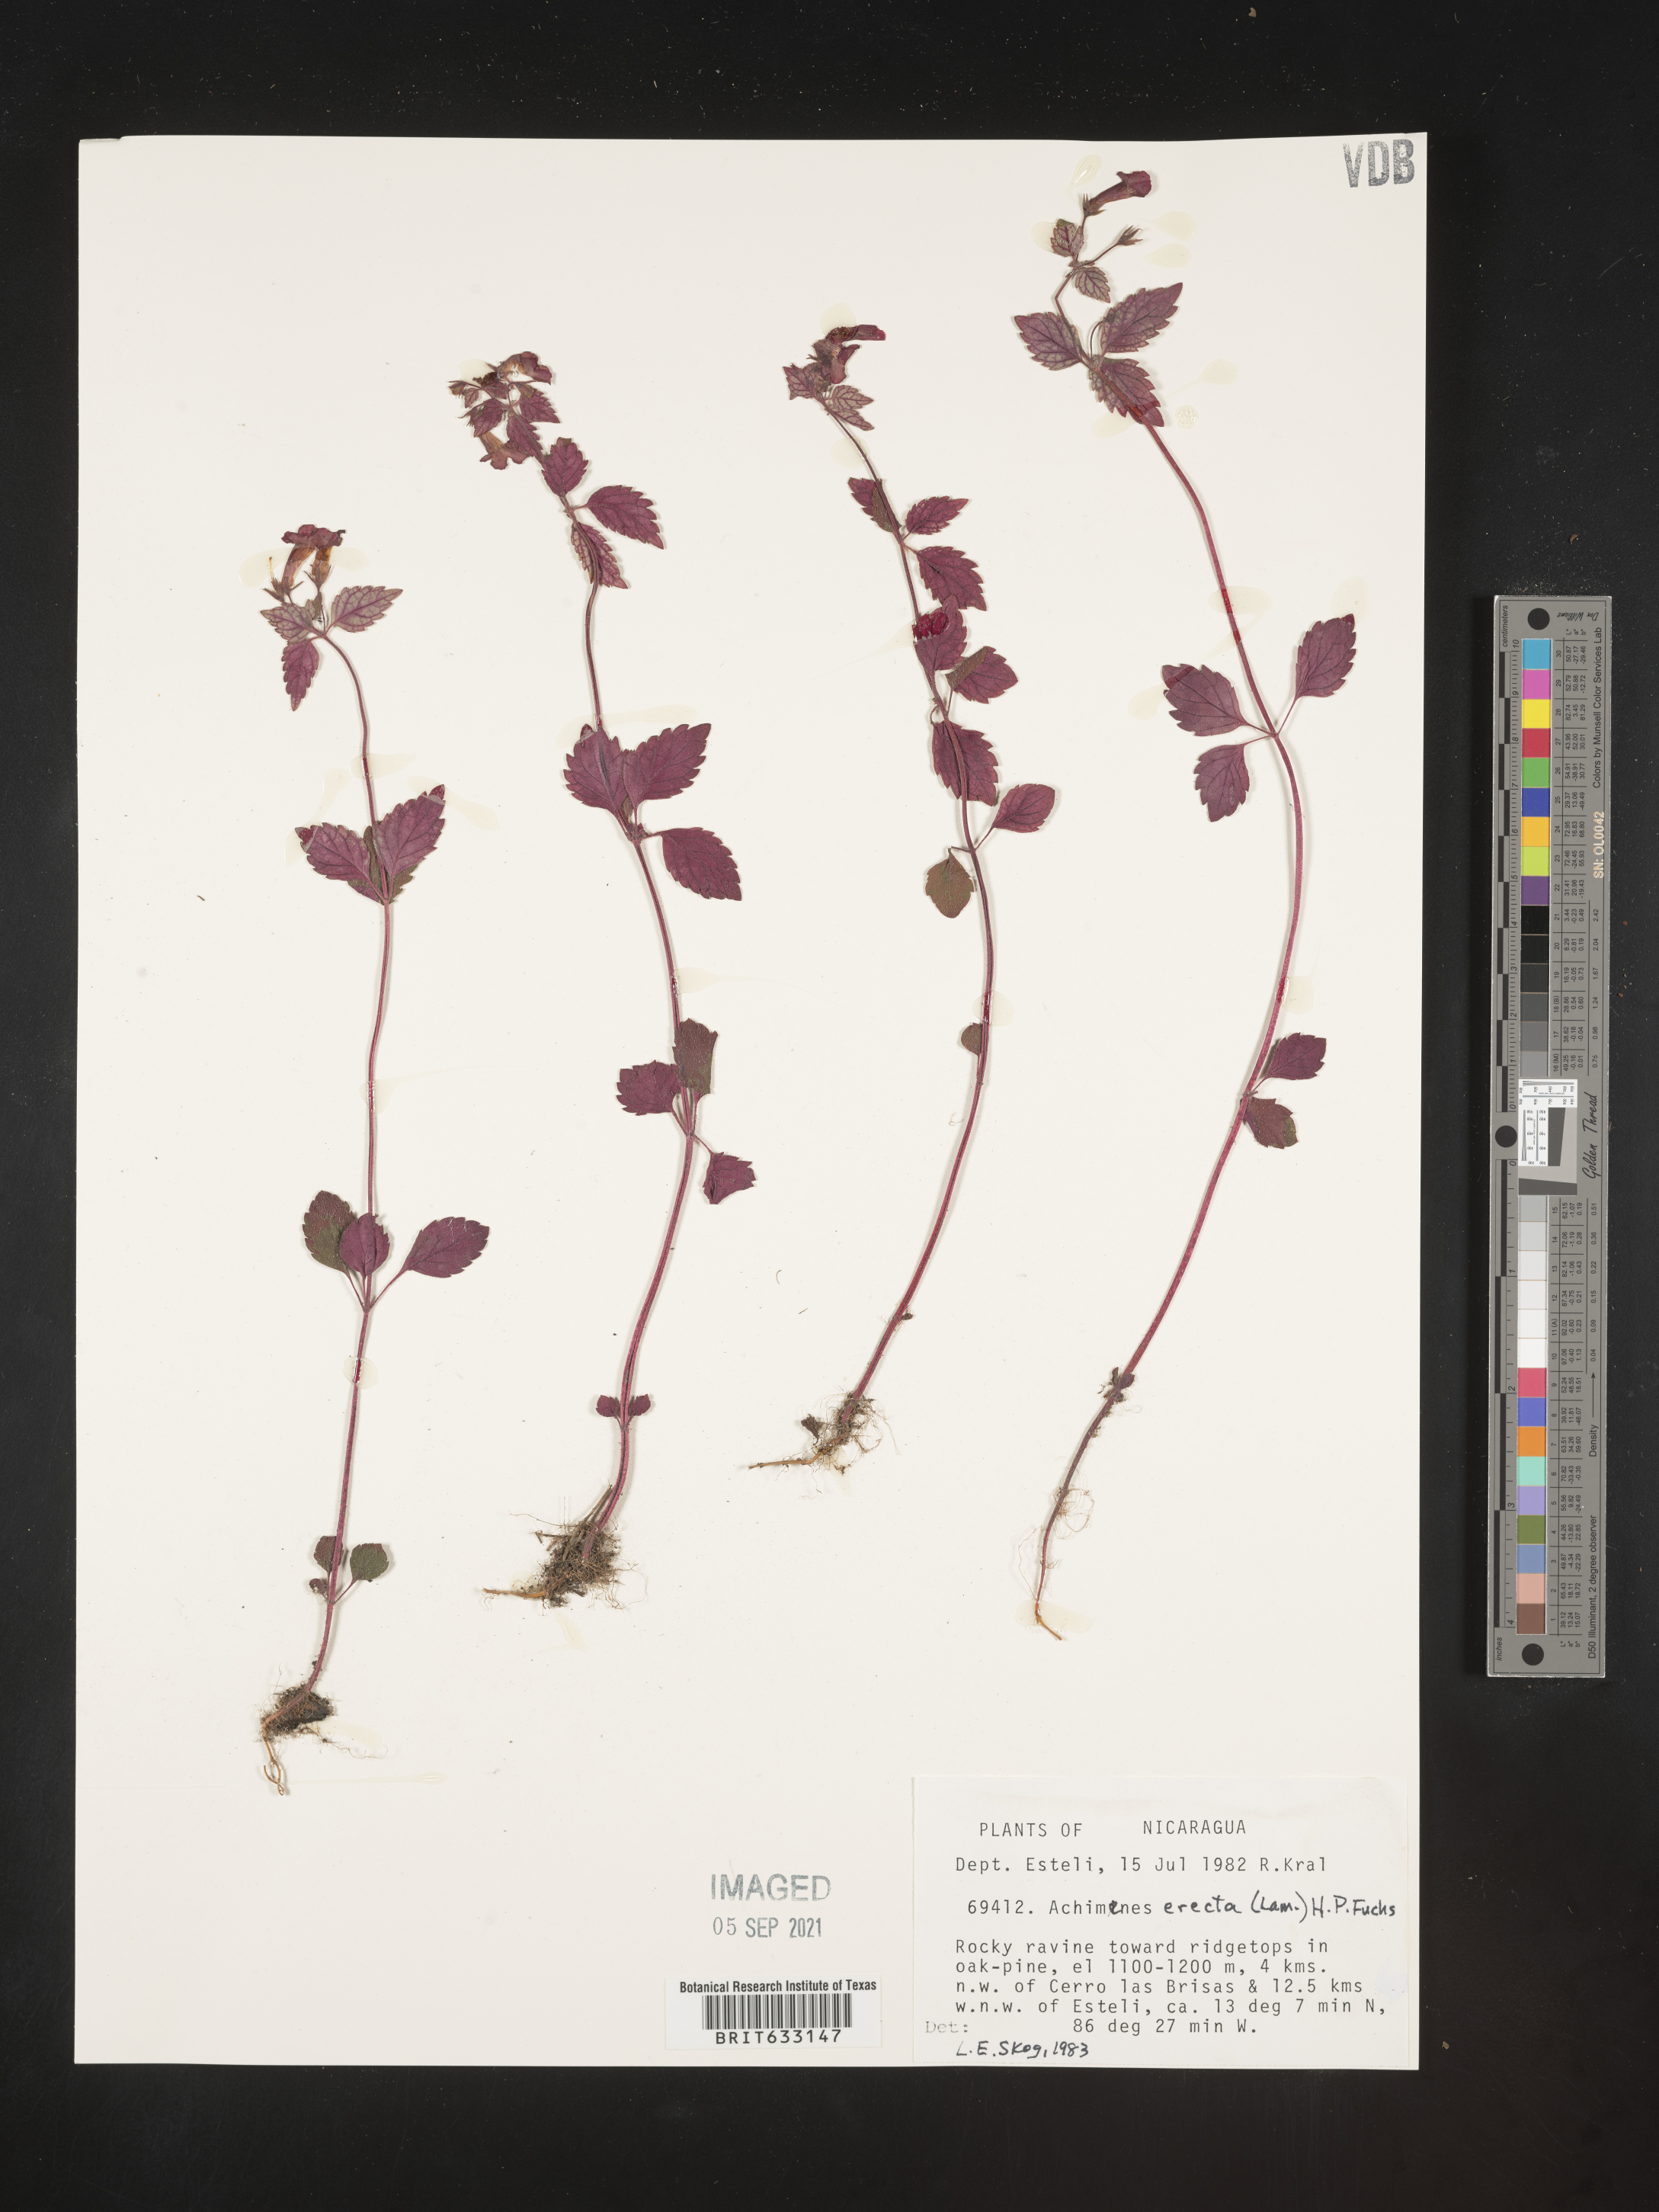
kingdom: Plantae
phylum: Tracheophyta
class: Magnoliopsida
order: Lamiales
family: Gesneriaceae
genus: Achimenes
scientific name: Achimenes
